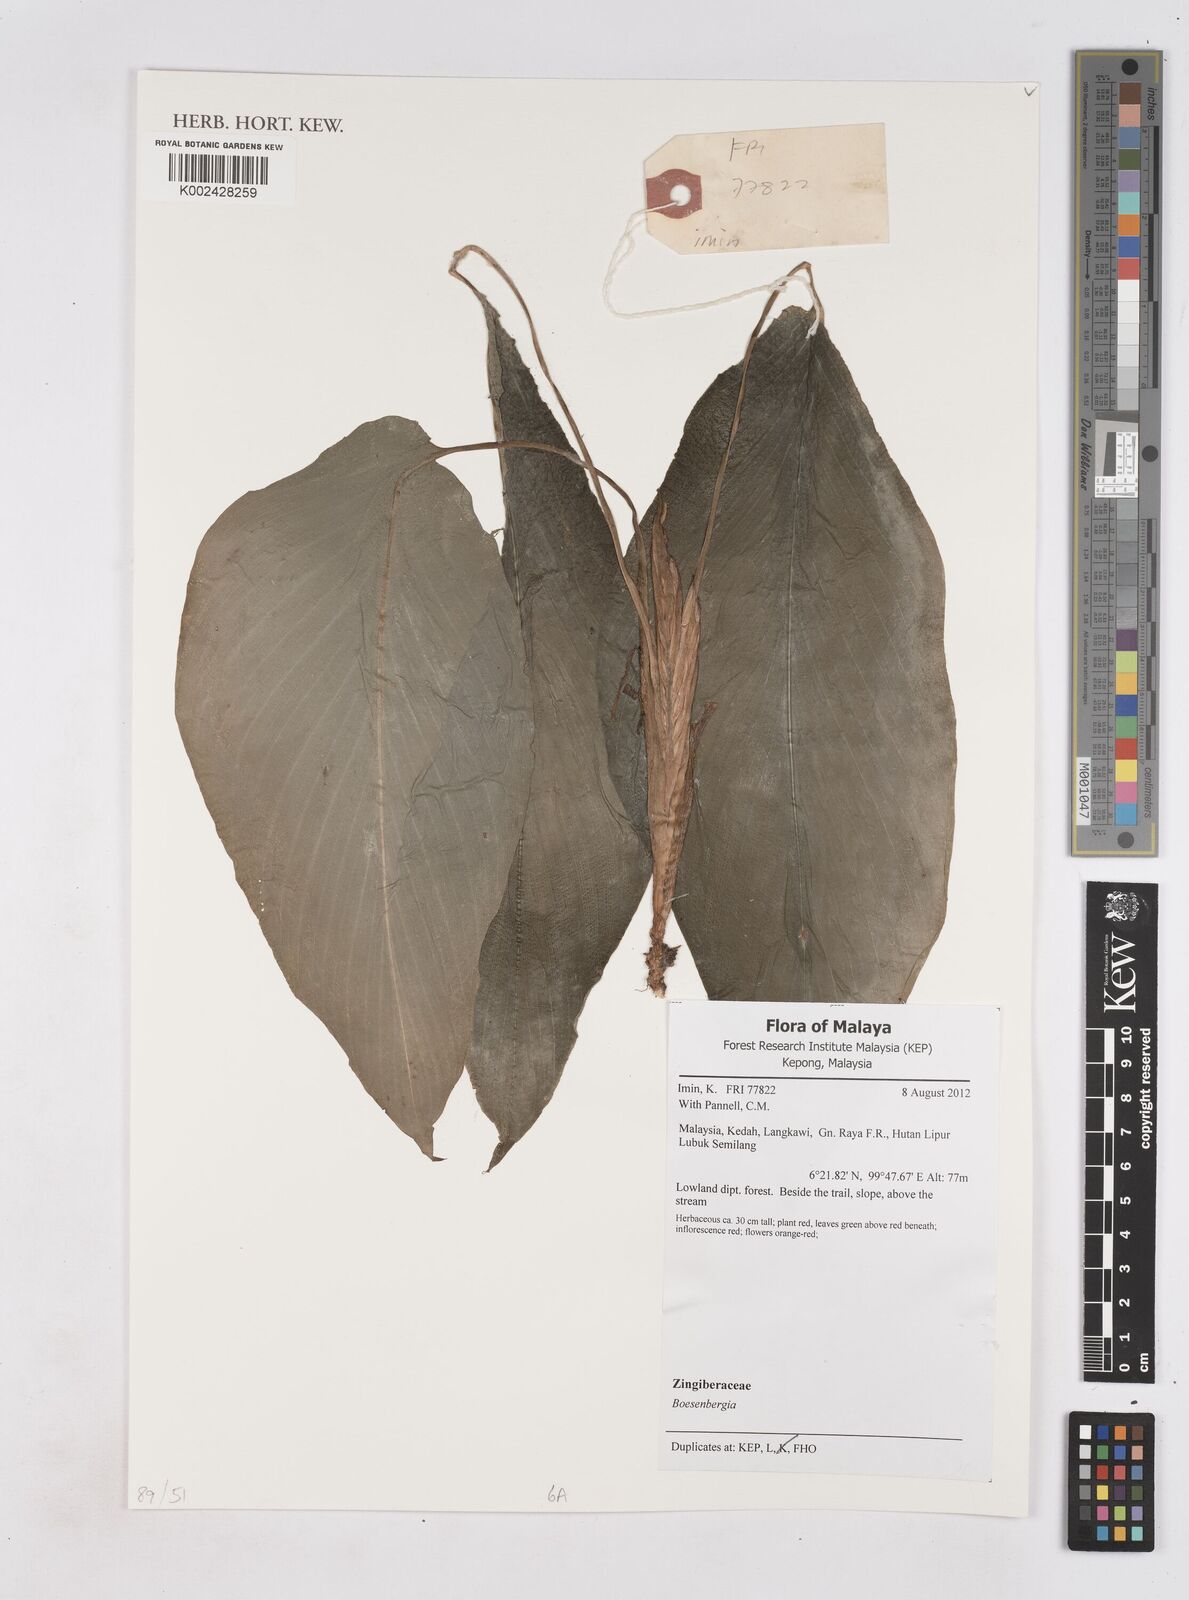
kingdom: Plantae
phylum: Tracheophyta
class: Liliopsida
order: Zingiberales
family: Zingiberaceae
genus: Boesenbergia
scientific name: Boesenbergia
